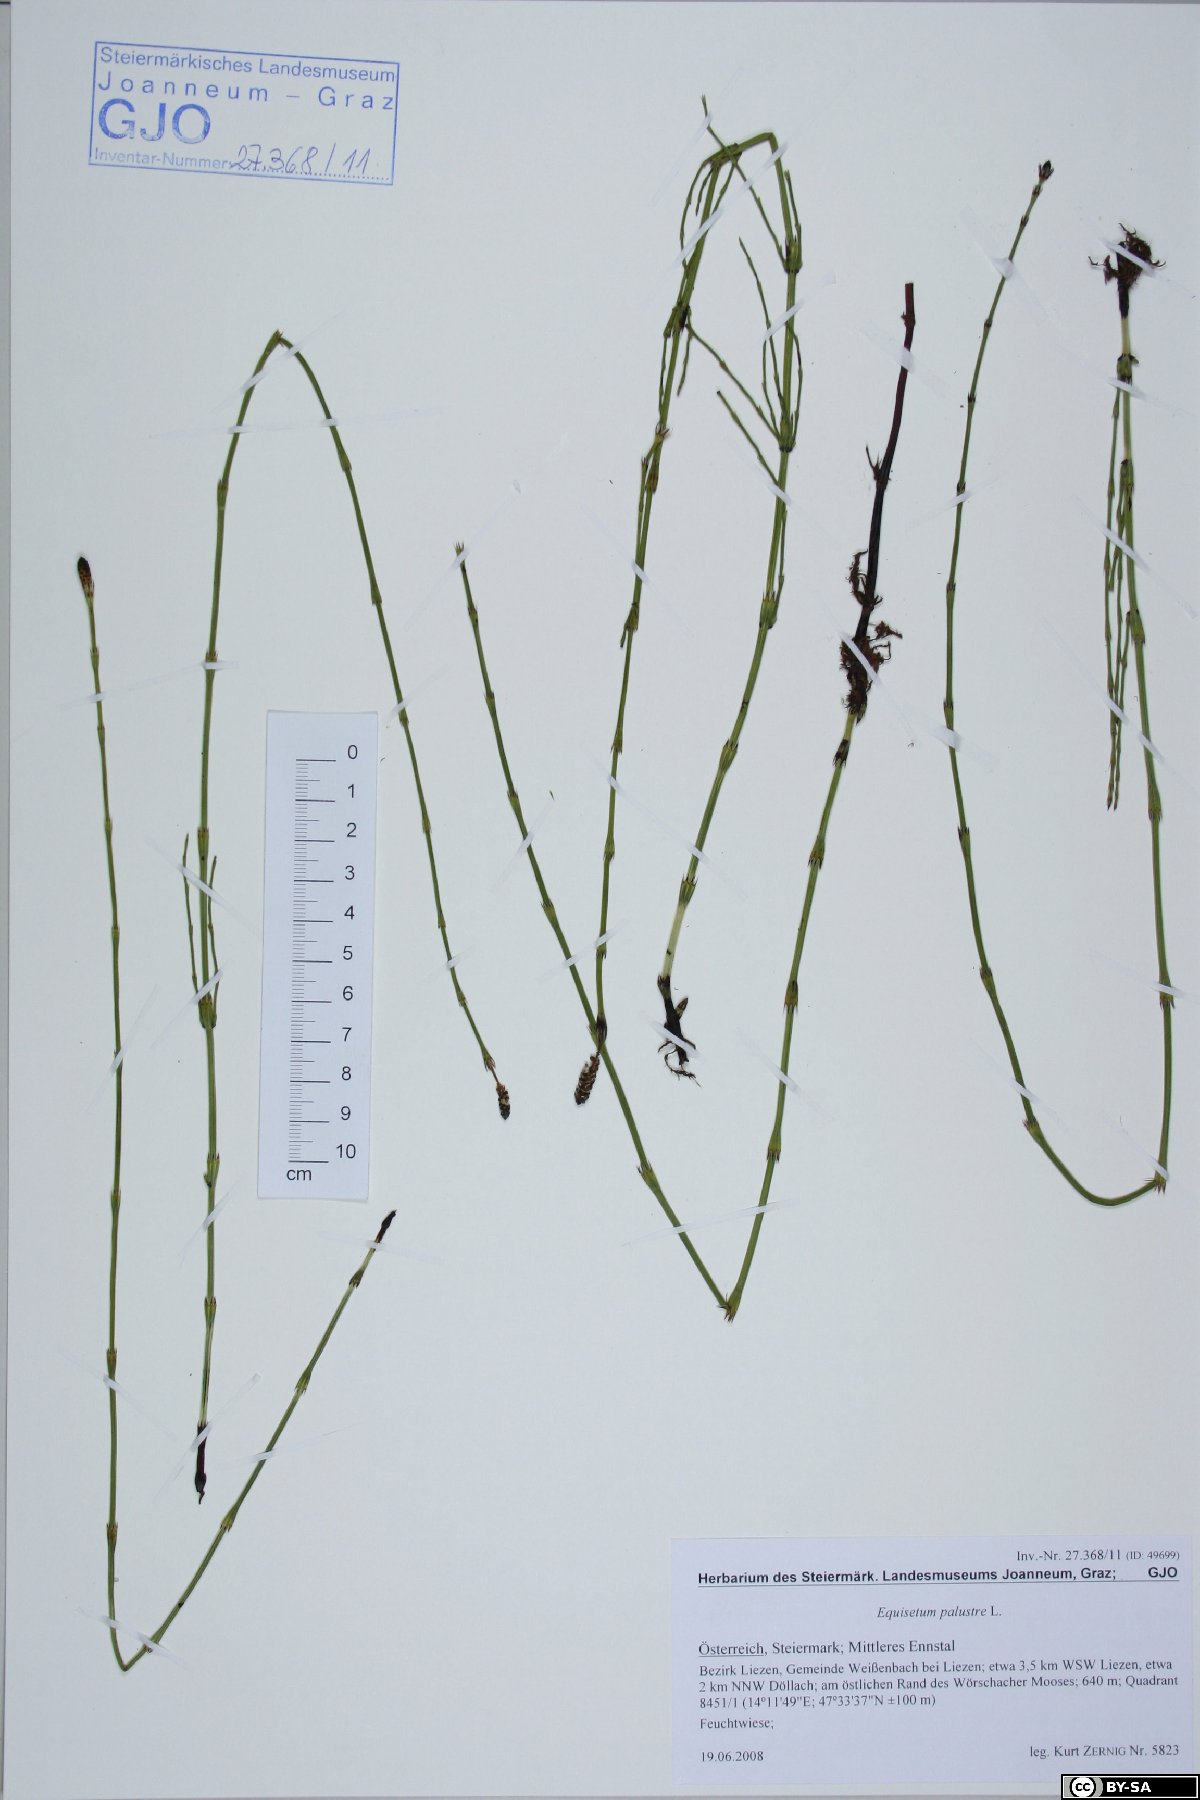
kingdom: Plantae
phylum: Tracheophyta
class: Polypodiopsida
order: Equisetales
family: Equisetaceae
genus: Equisetum
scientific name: Equisetum palustre
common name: Marsh horsetail
